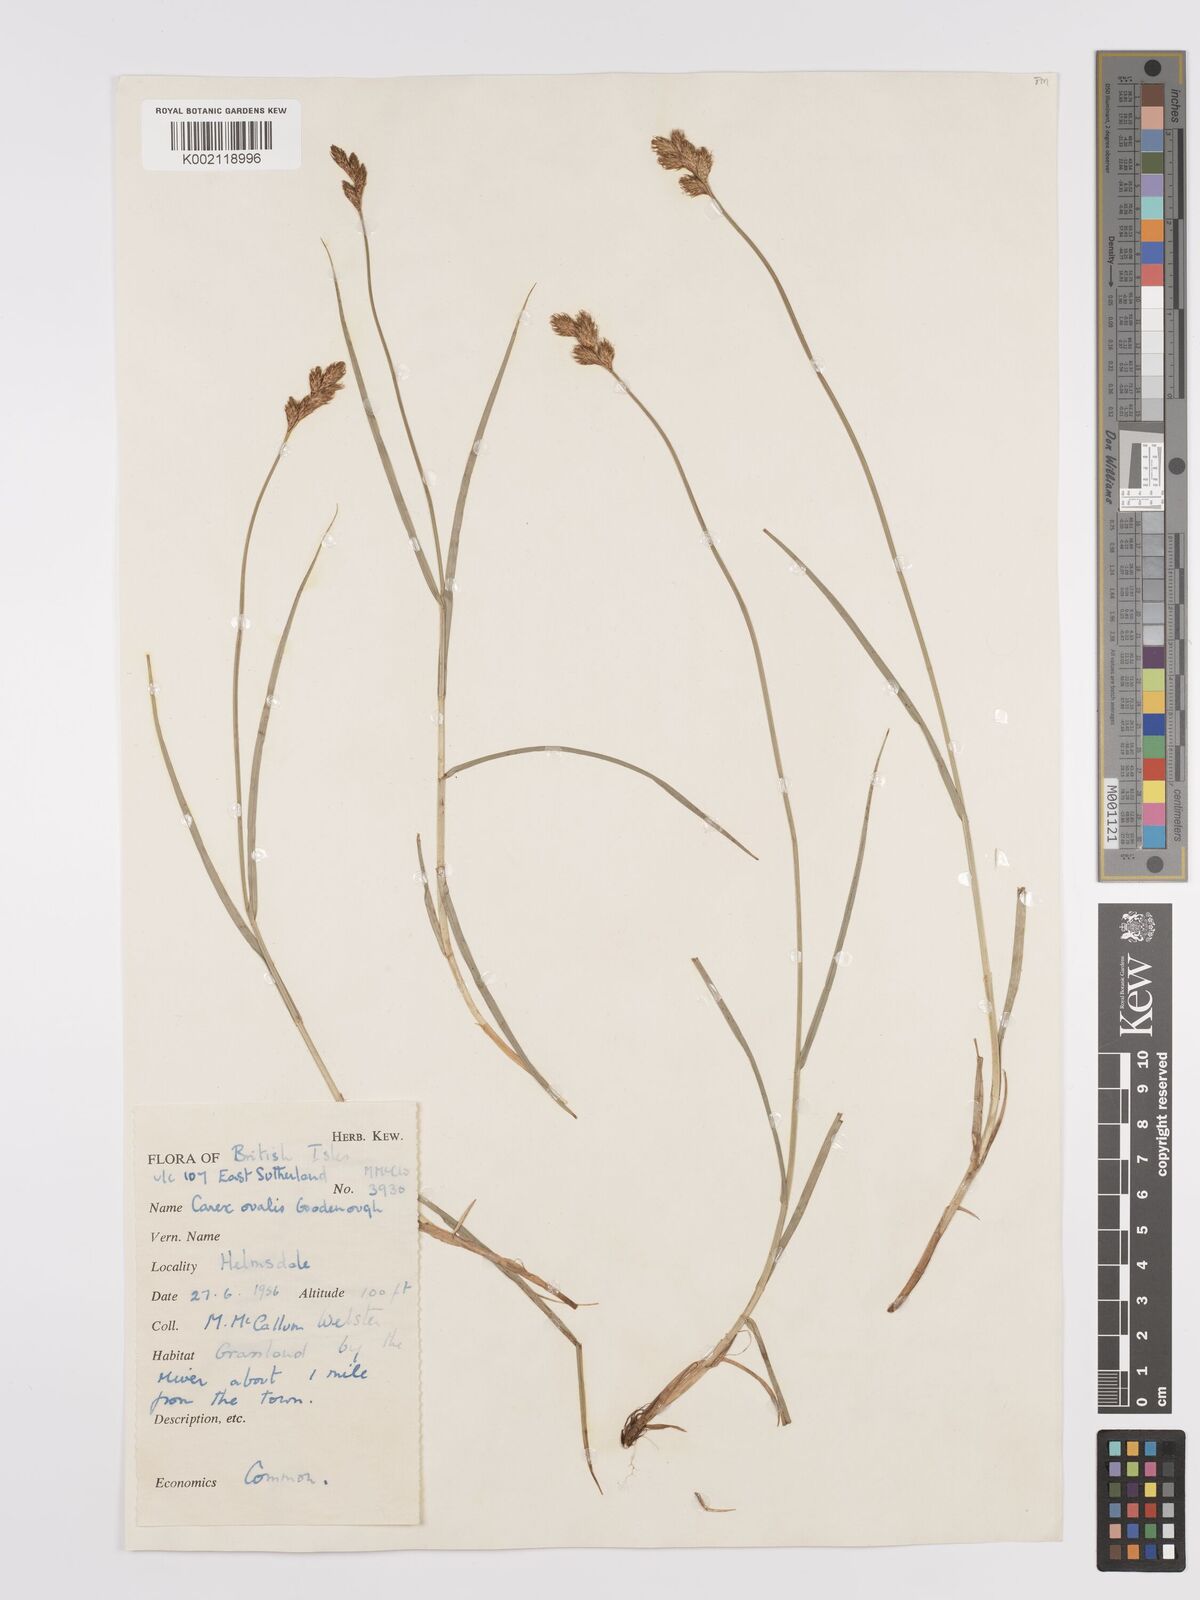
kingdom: Plantae
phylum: Tracheophyta
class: Liliopsida
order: Poales
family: Cyperaceae
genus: Carex
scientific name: Carex leporina
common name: Oval sedge
